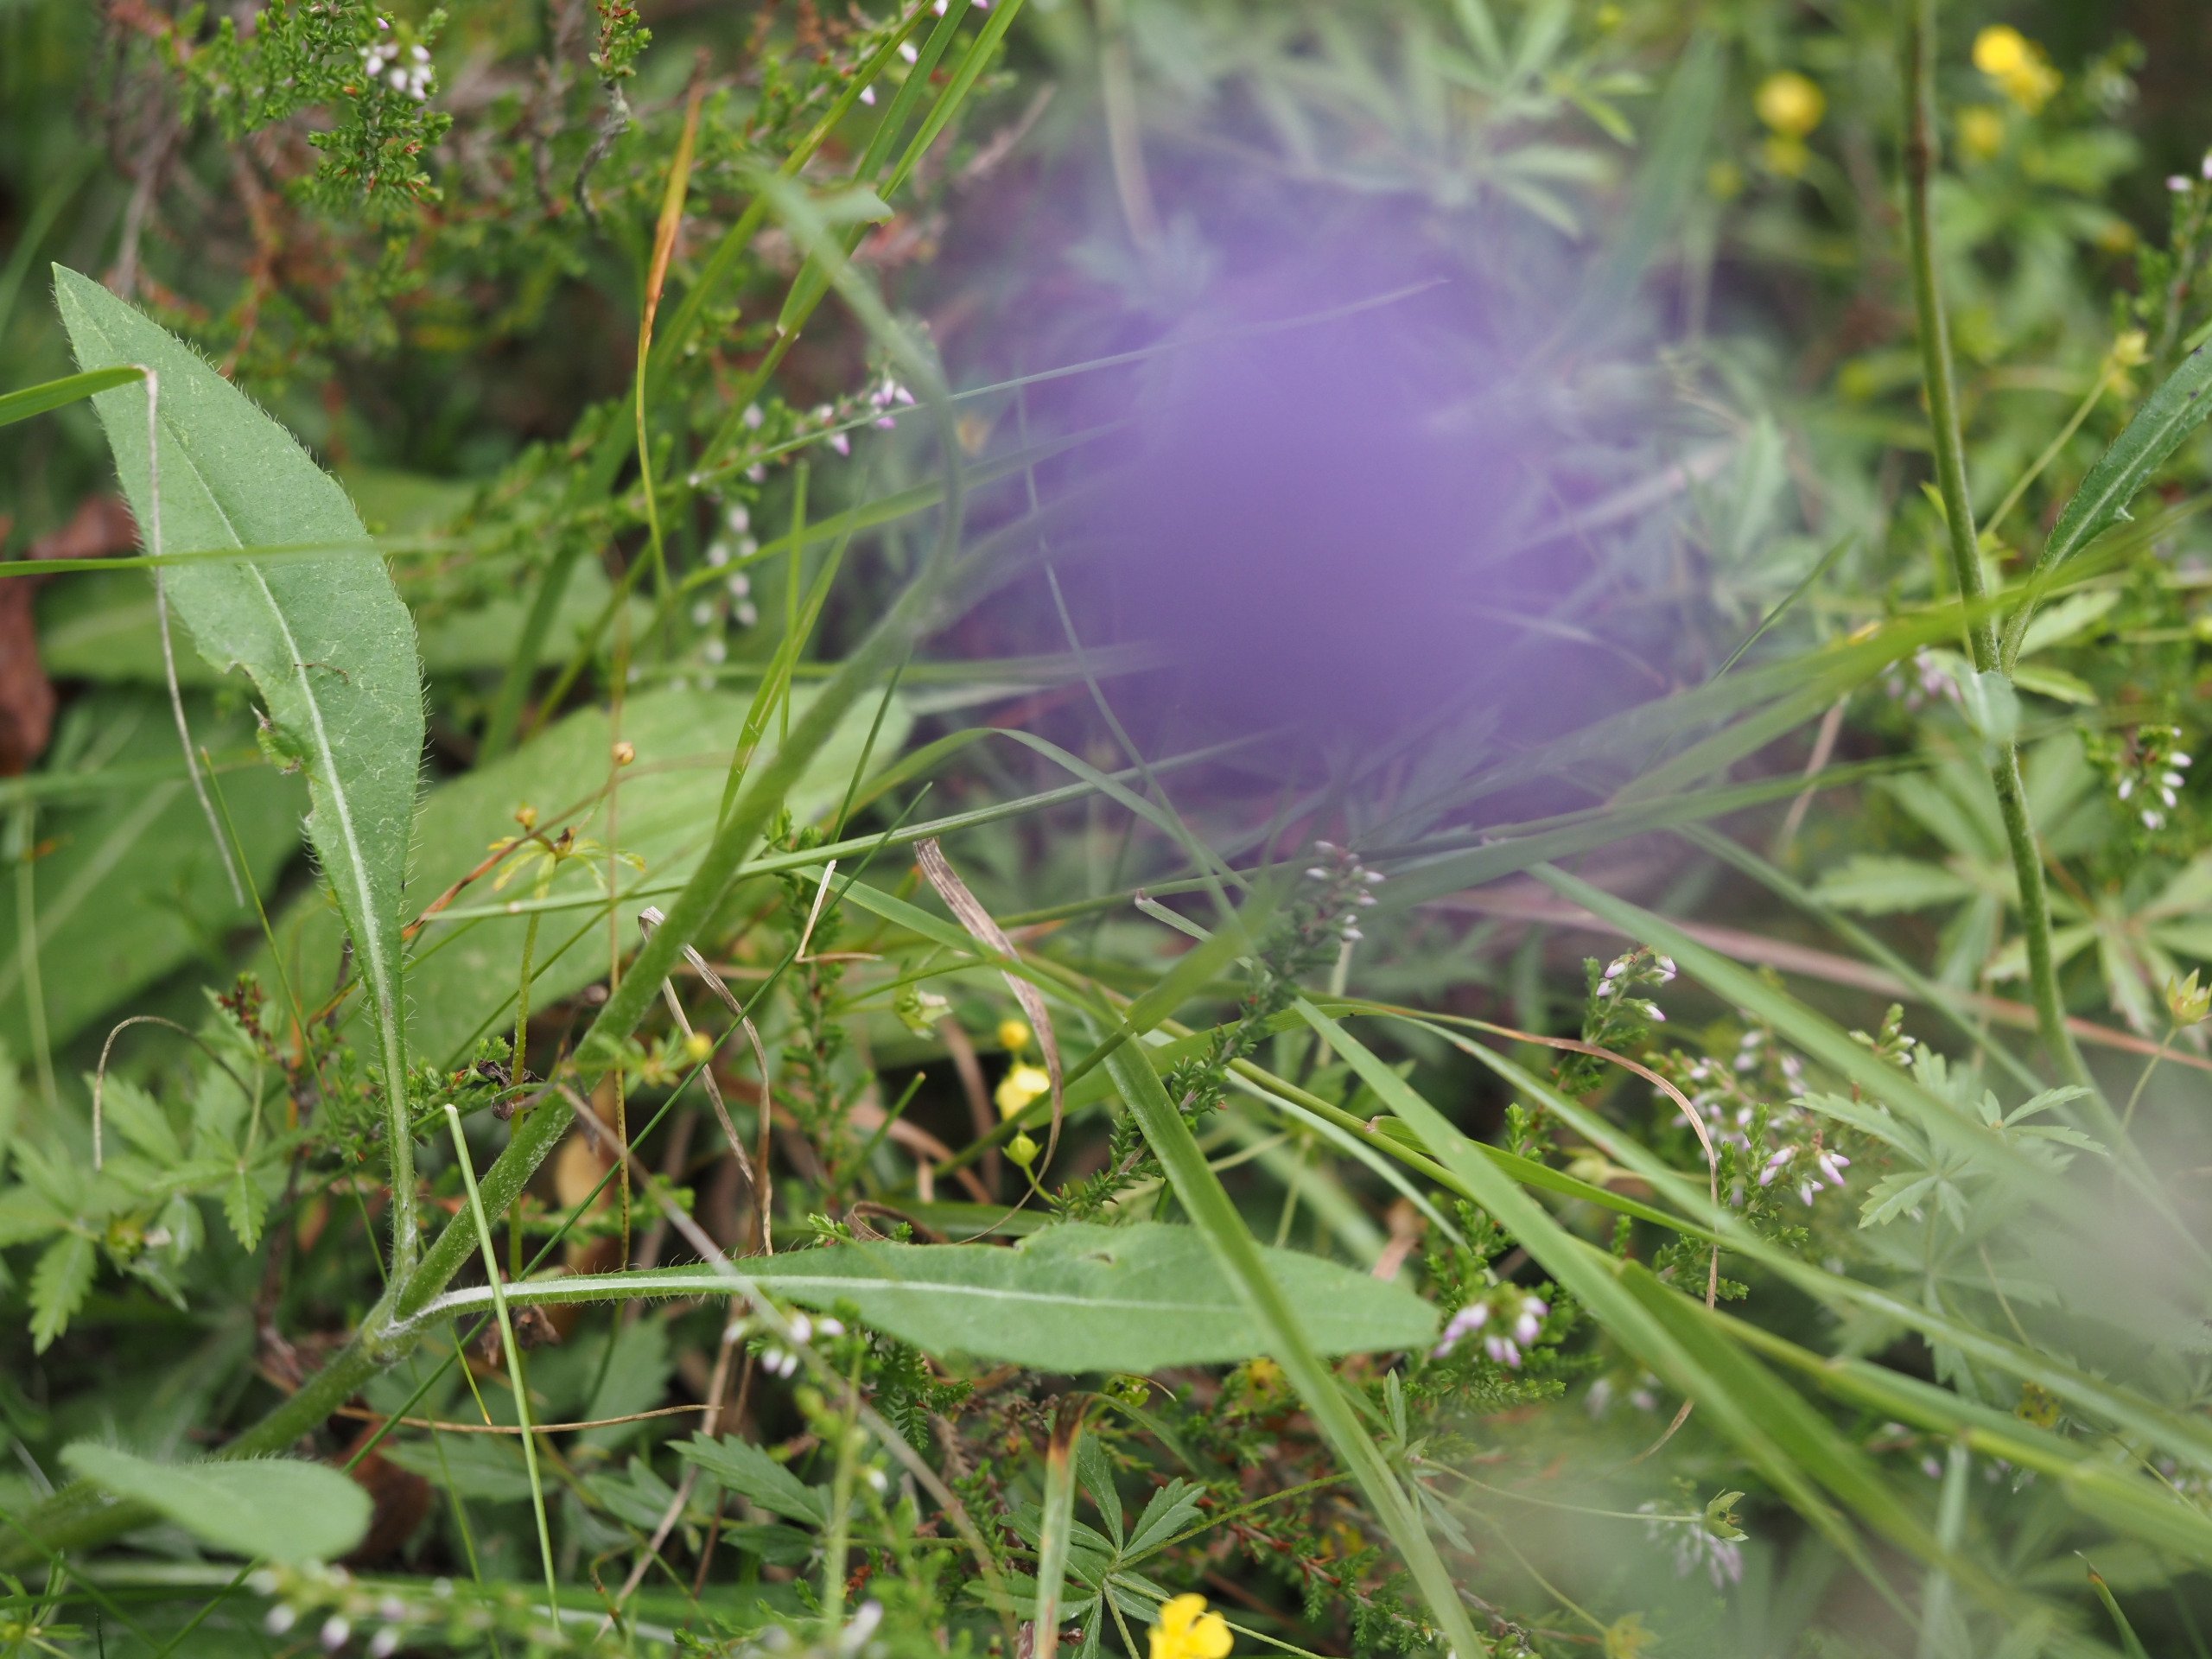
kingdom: Plantae
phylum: Tracheophyta
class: Magnoliopsida
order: Dipsacales
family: Caprifoliaceae
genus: Succisa
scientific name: Succisa pratensis
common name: Djævelsbid
